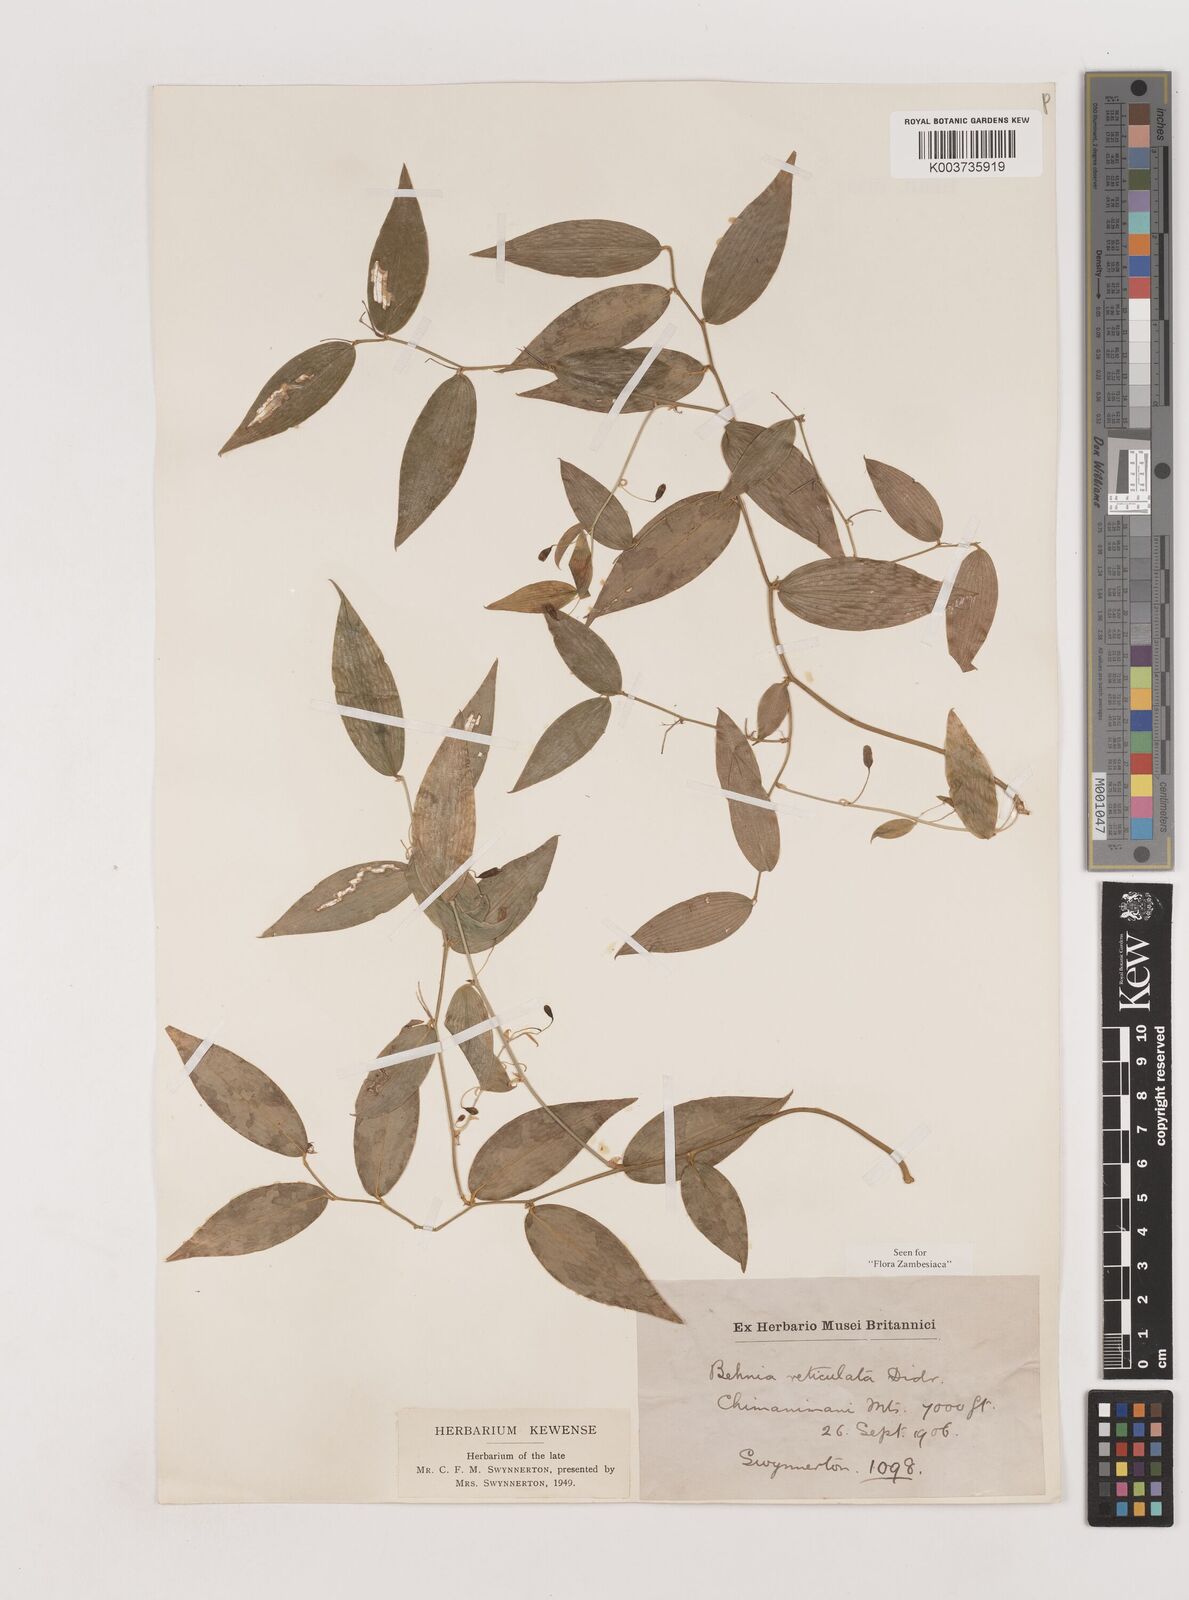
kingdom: Plantae
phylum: Tracheophyta
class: Liliopsida
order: Asparagales
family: Asparagaceae
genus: Behnia
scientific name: Behnia reticulata
